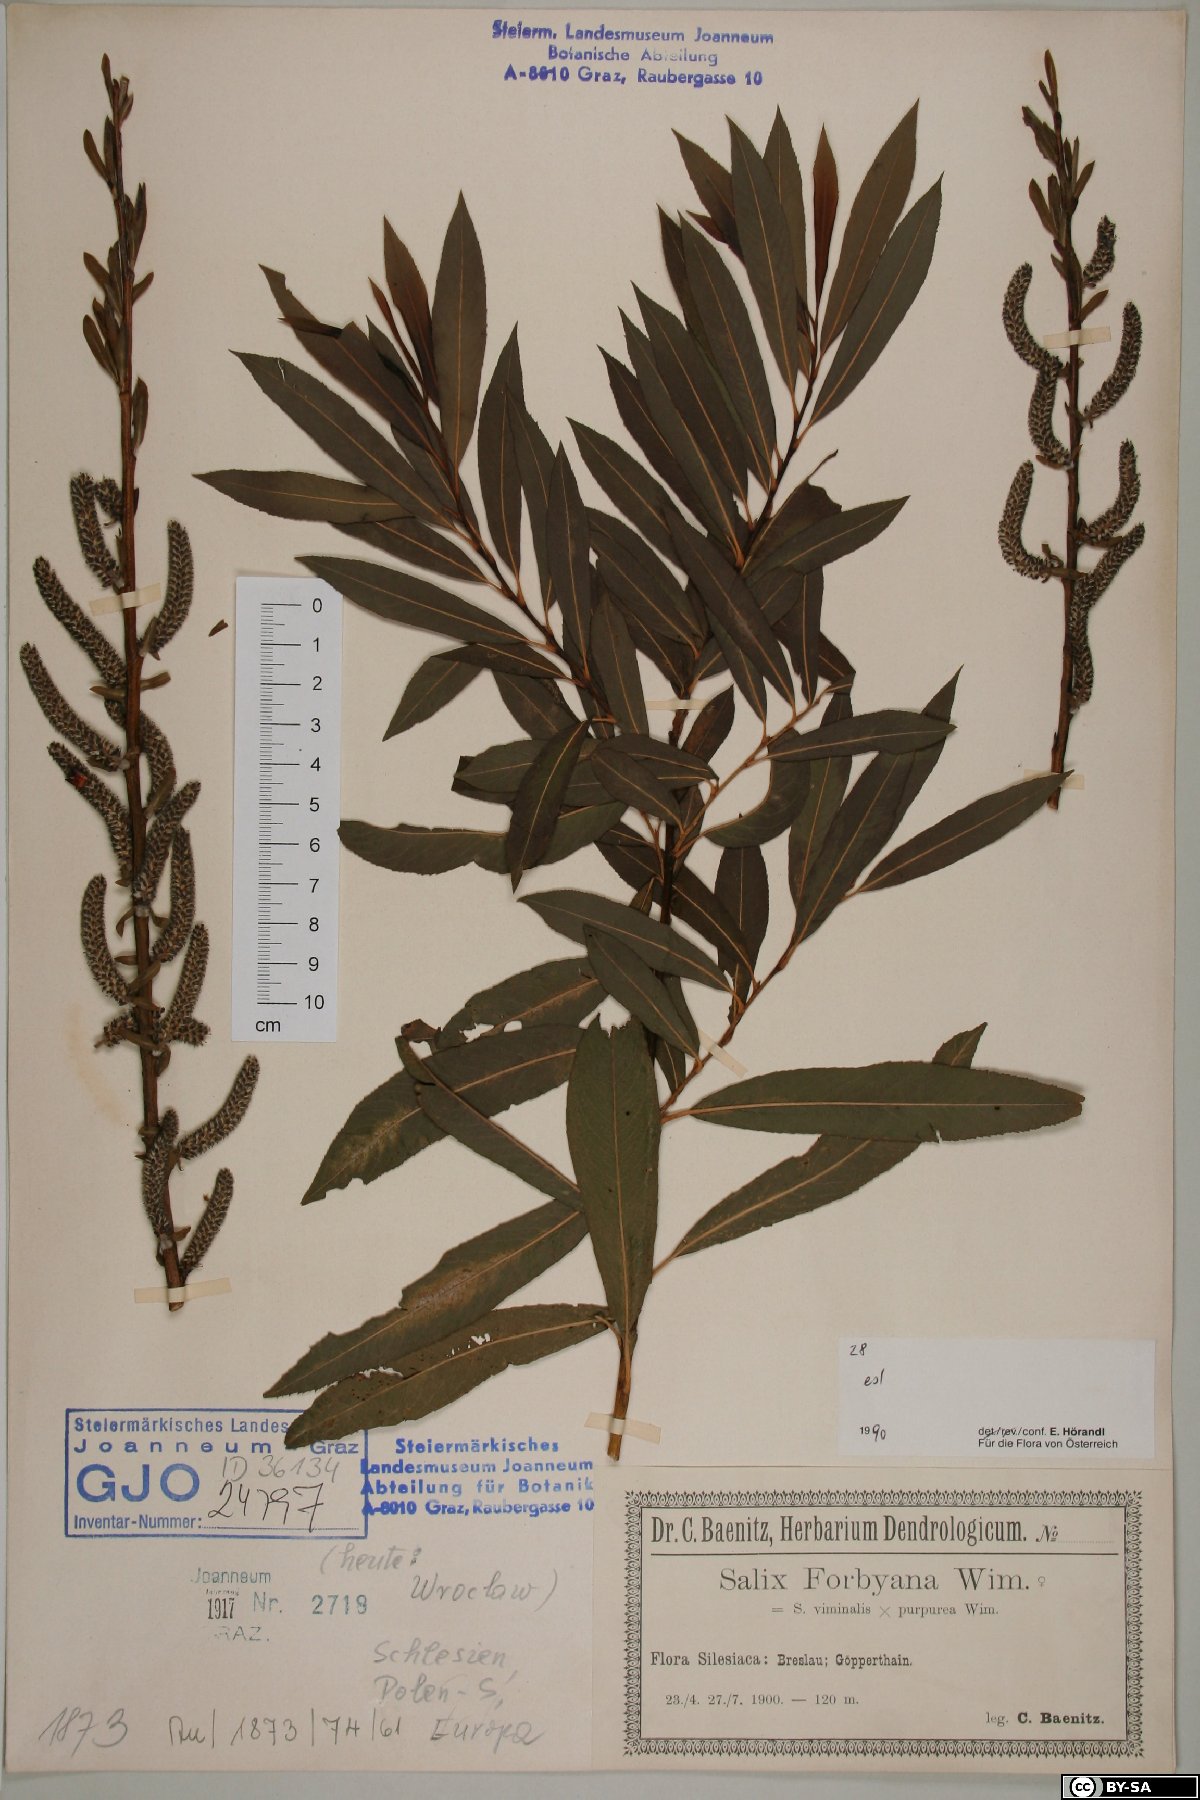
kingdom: Plantae
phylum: Tracheophyta
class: Magnoliopsida
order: Malpighiales
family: Salicaceae
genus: Salix
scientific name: Salix rubra
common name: Green-leaf willow
